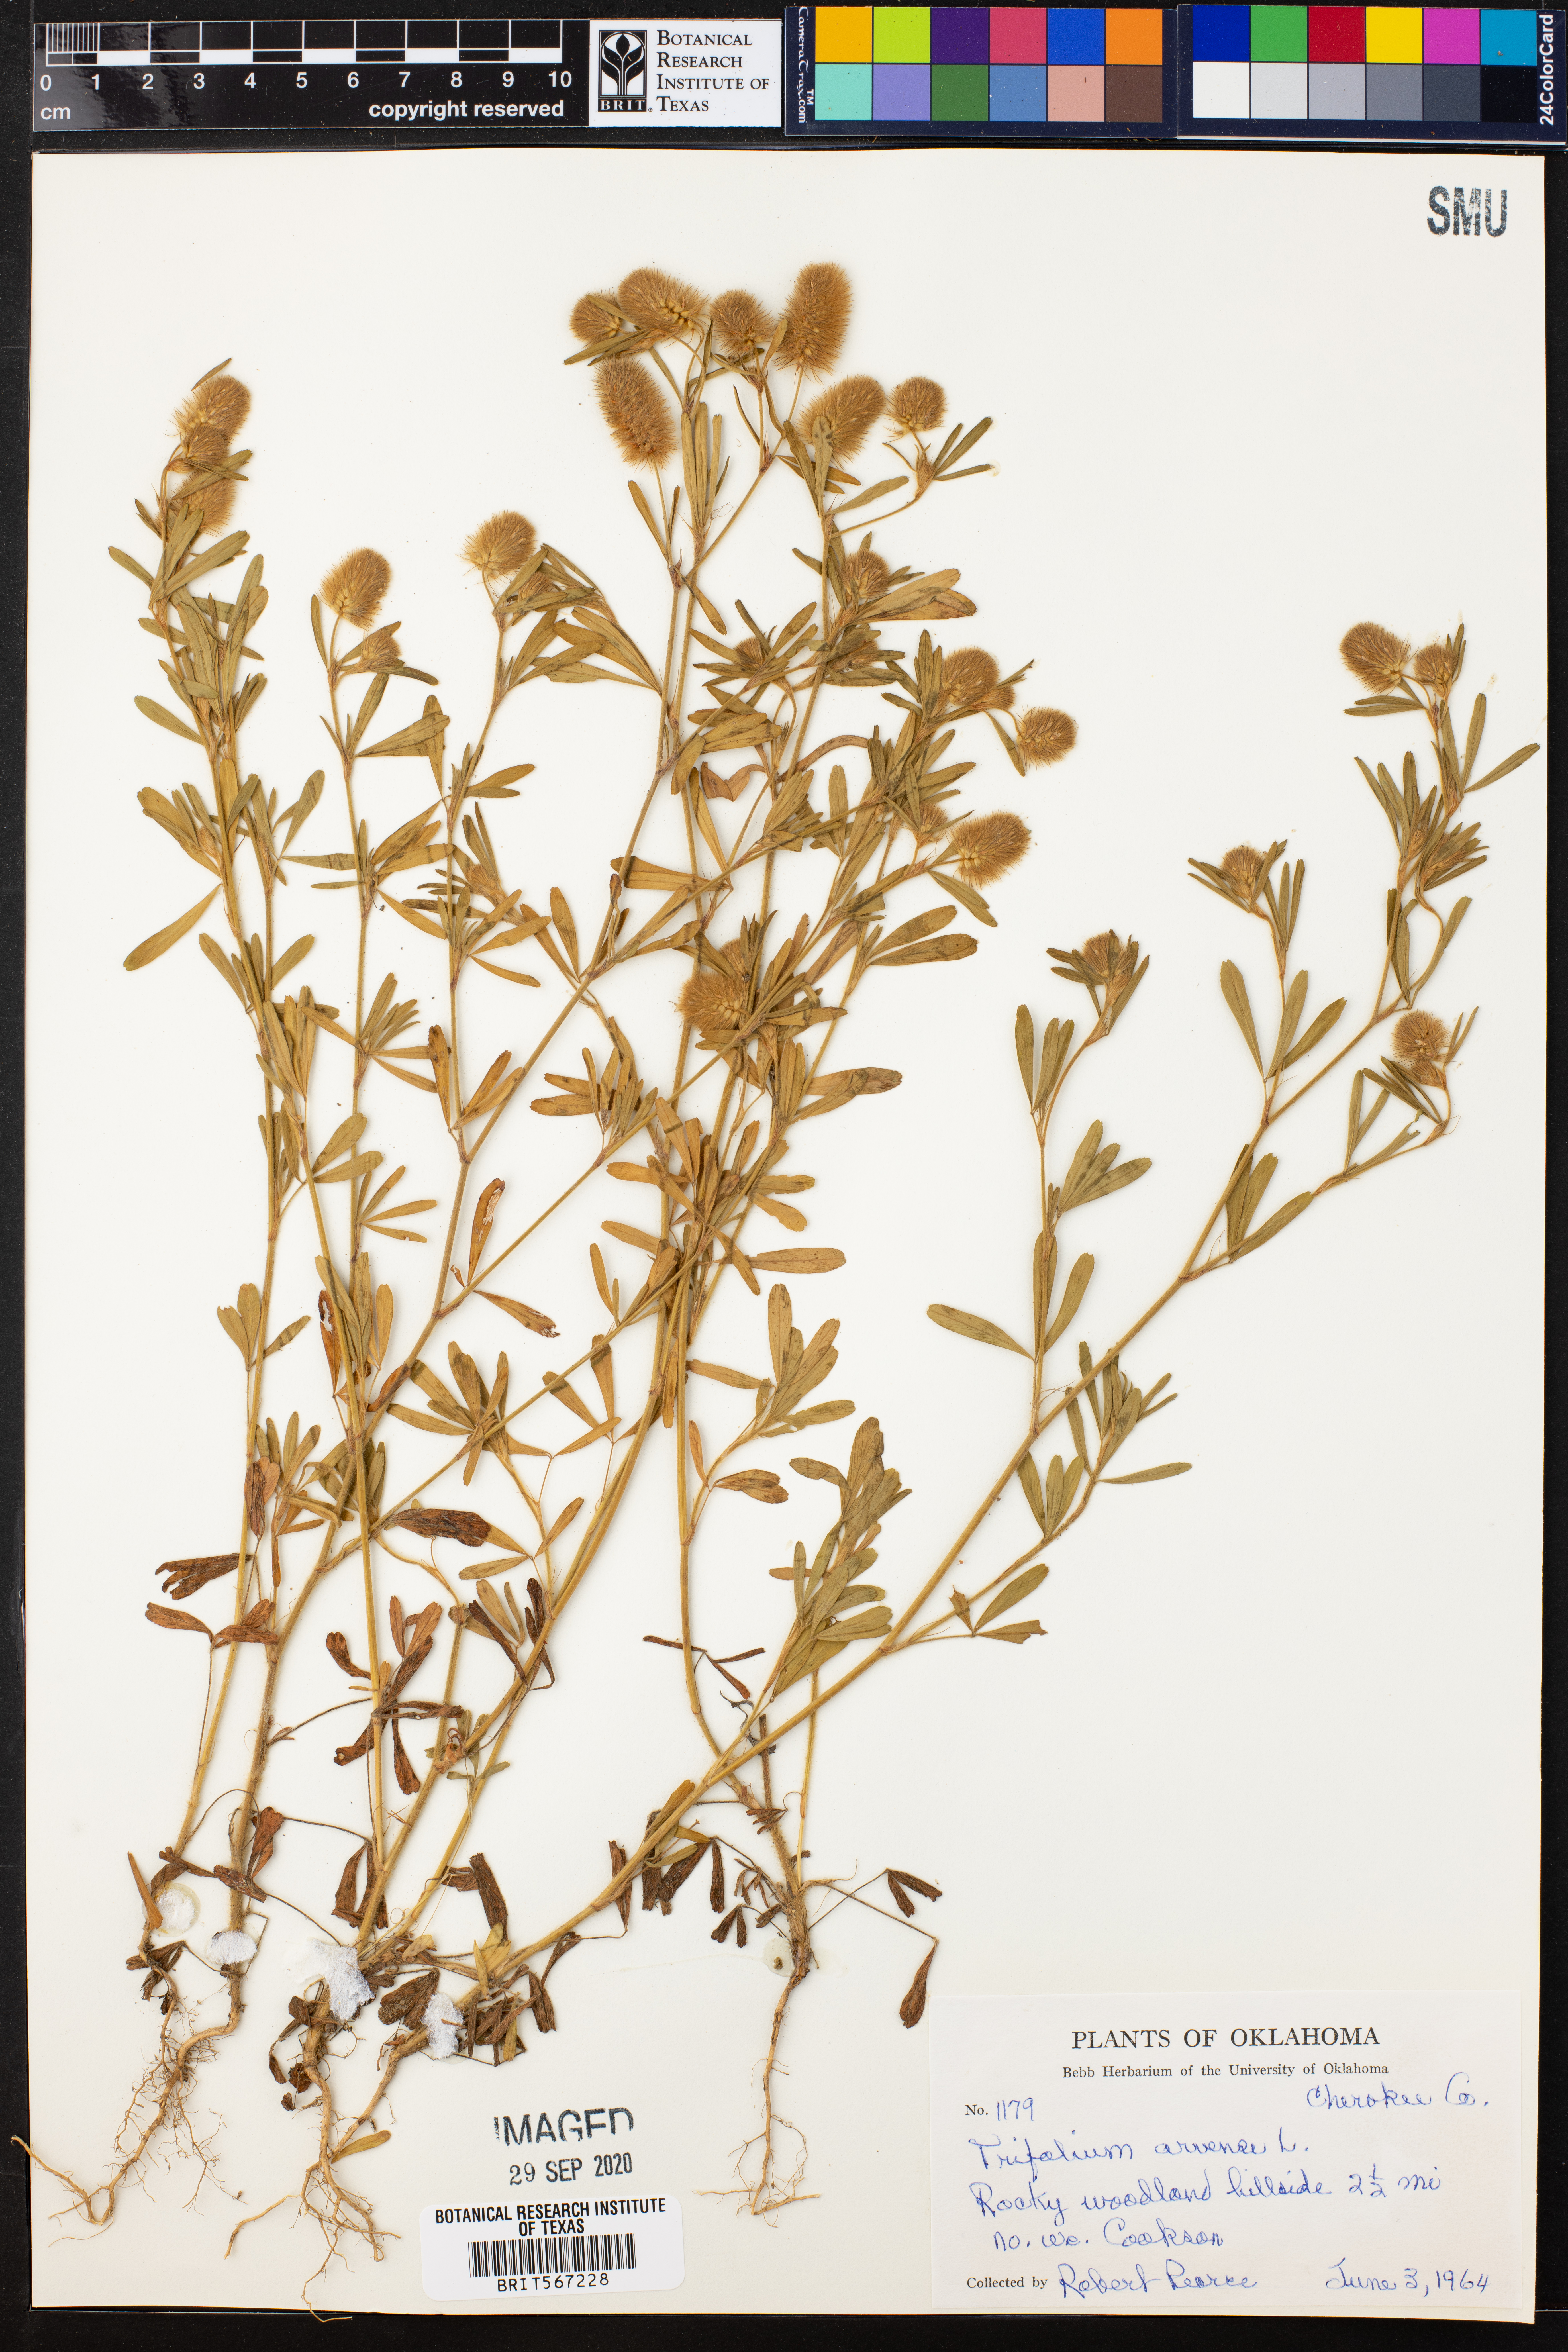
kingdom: Plantae
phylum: Tracheophyta
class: Magnoliopsida
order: Fabales
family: Fabaceae
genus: Trifolium
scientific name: Trifolium arvense
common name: Hare's-foot clover
